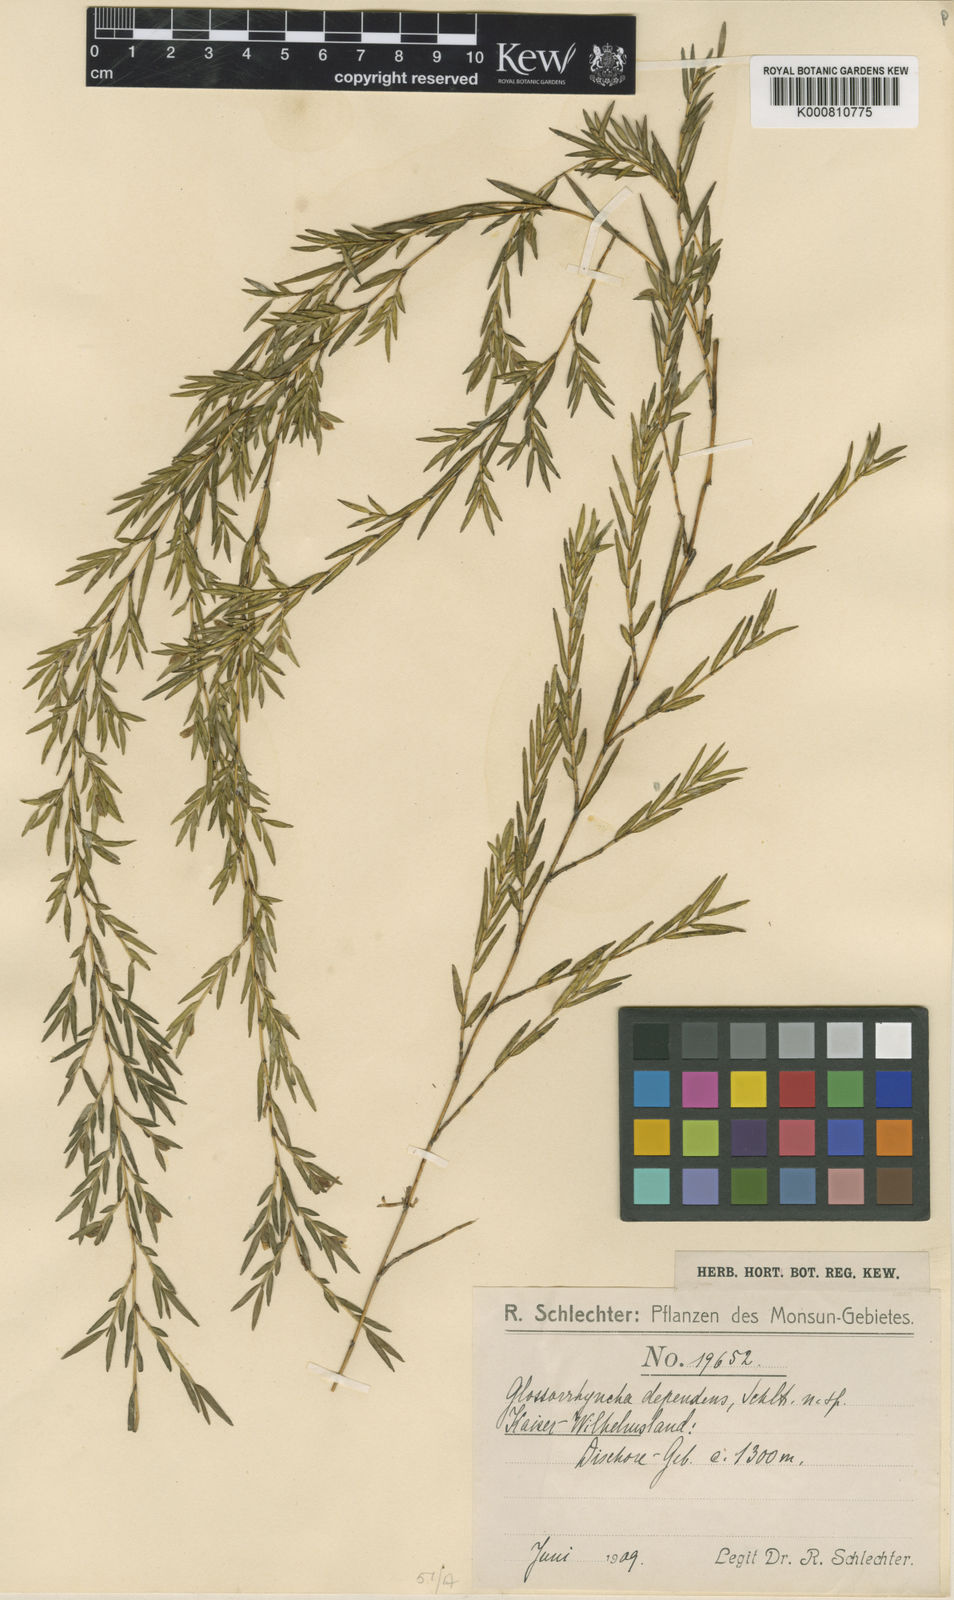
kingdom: Plantae
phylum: Tracheophyta
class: Liliopsida
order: Asparagales
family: Orchidaceae
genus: Glomera
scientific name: Glomera dependens
